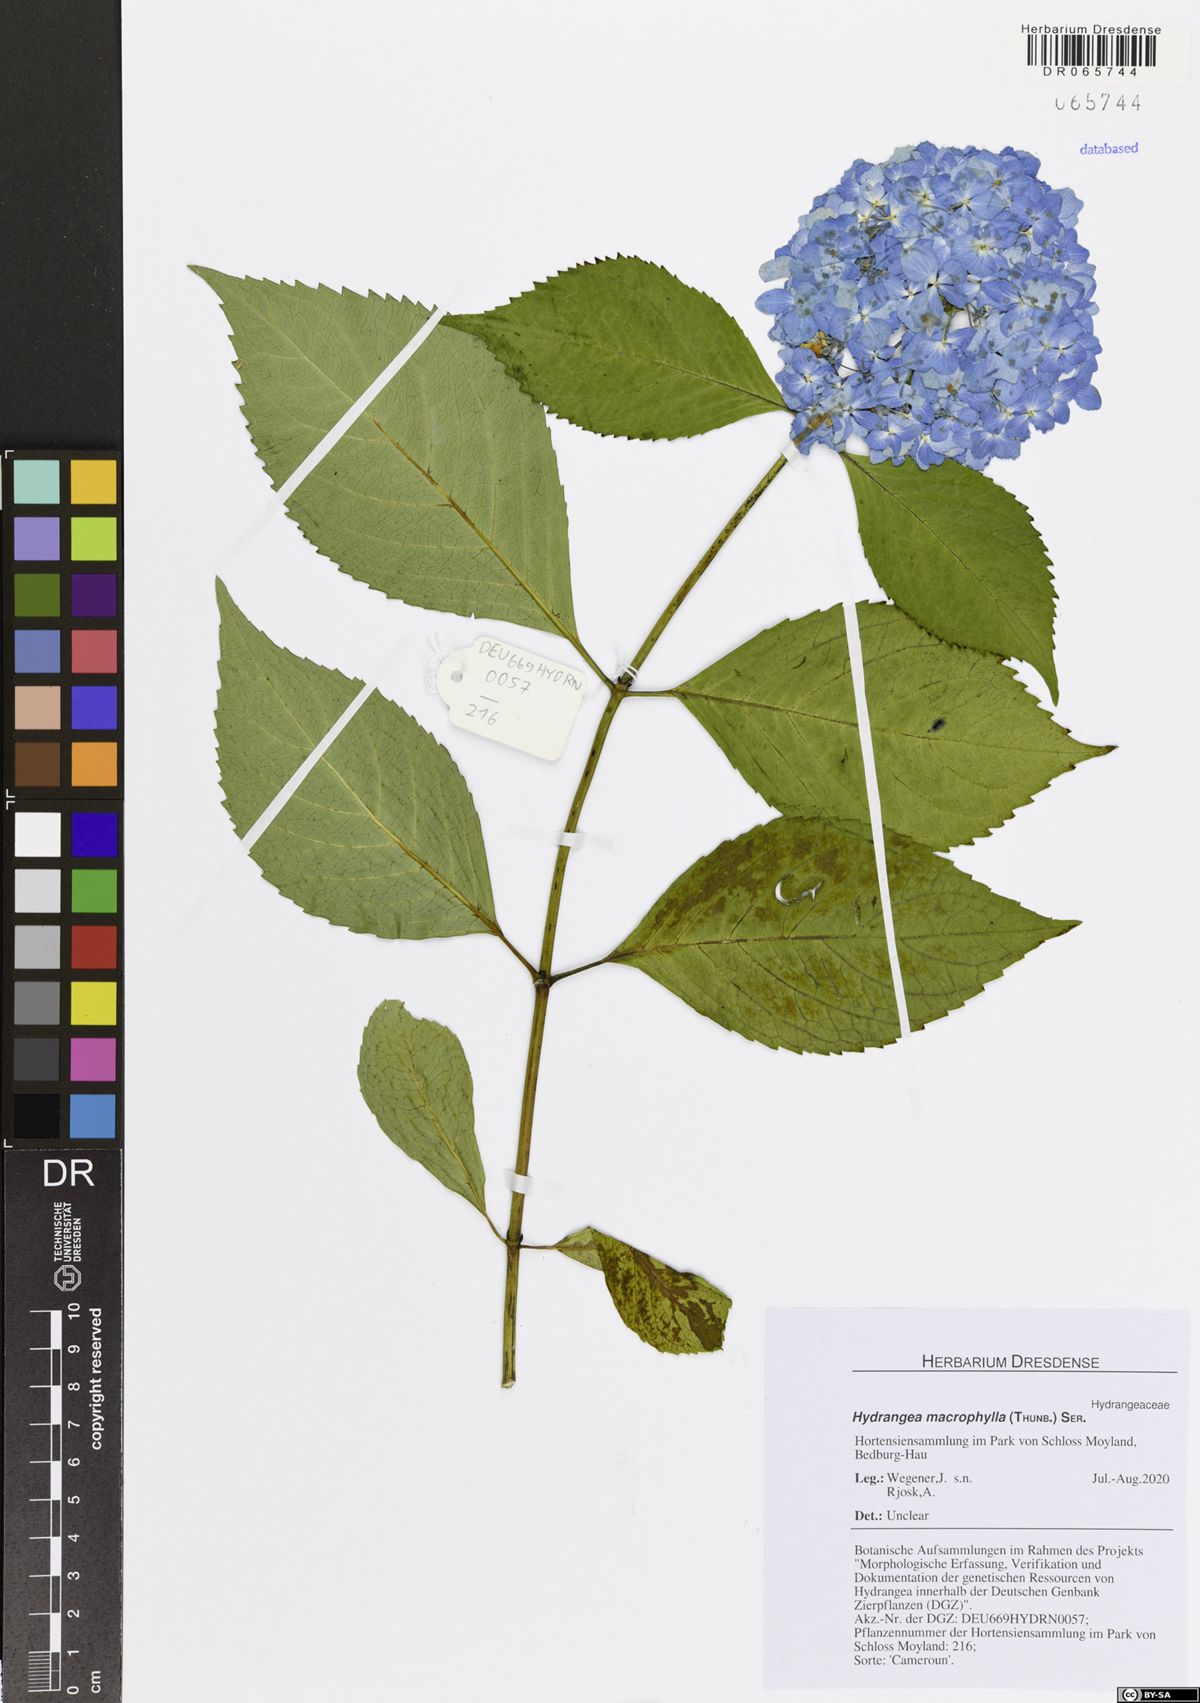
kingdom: Plantae
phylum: Tracheophyta
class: Magnoliopsida
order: Cornales
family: Hydrangeaceae
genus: Hydrangea
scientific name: Hydrangea macrophylla
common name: Hydrangea
